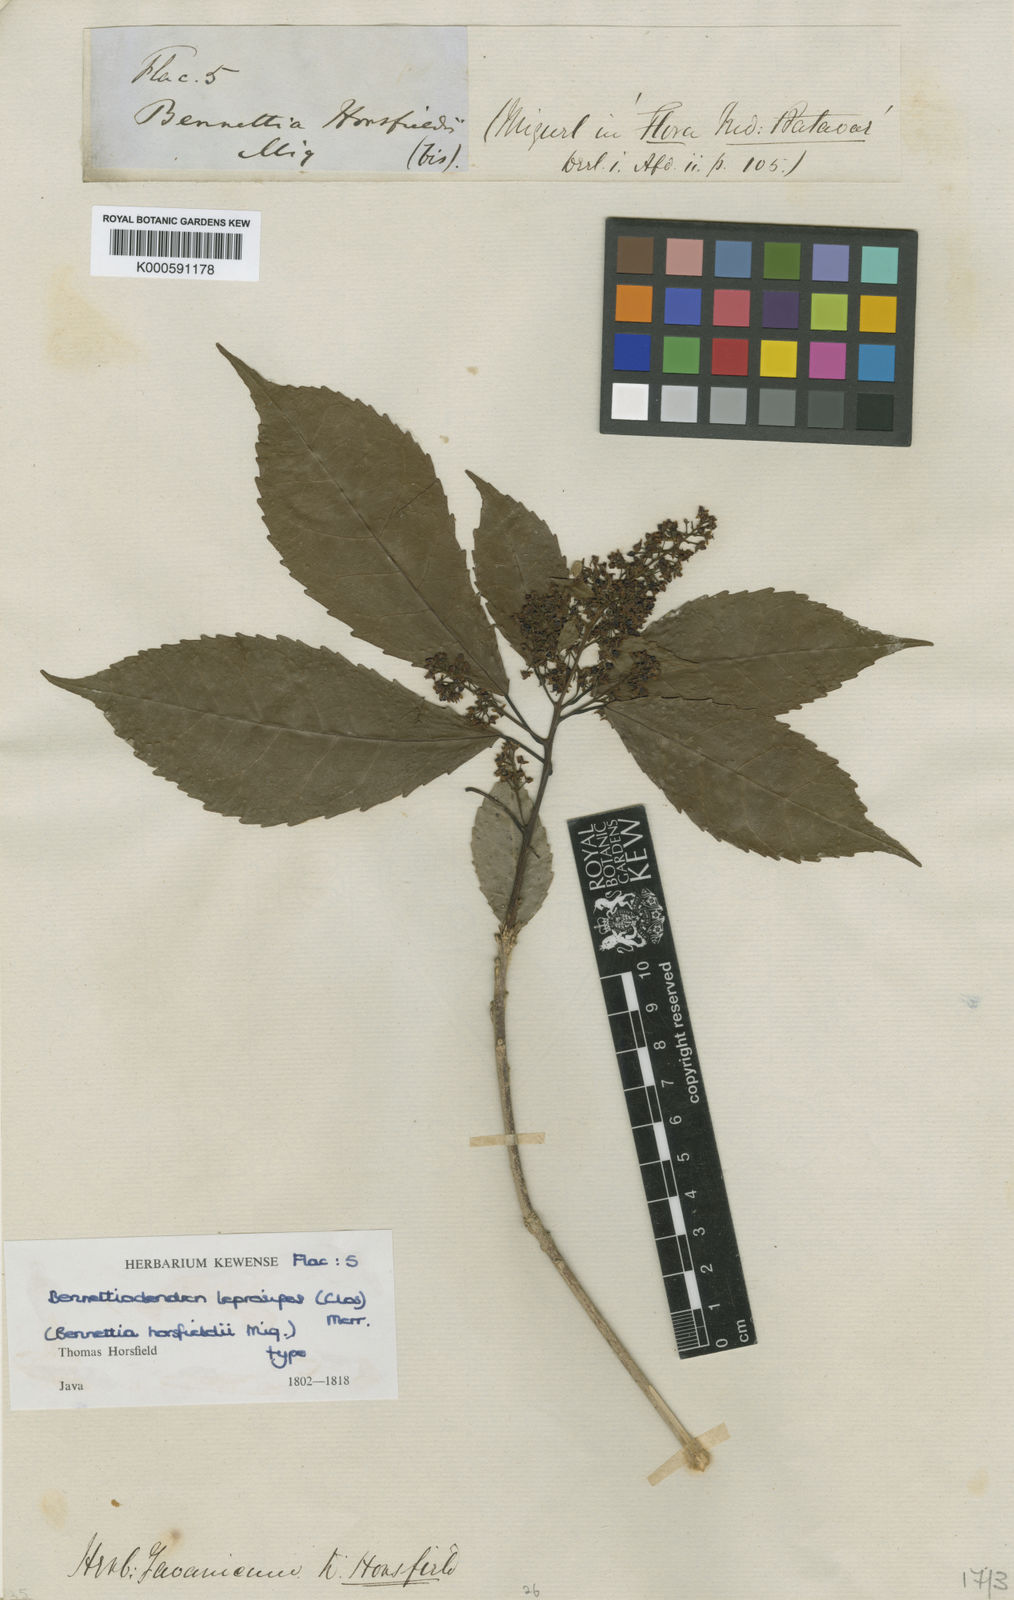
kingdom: Plantae
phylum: Tracheophyta
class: Magnoliopsida
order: Malpighiales
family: Salicaceae
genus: Bennettiodendron
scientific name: Bennettiodendron leprosipes
